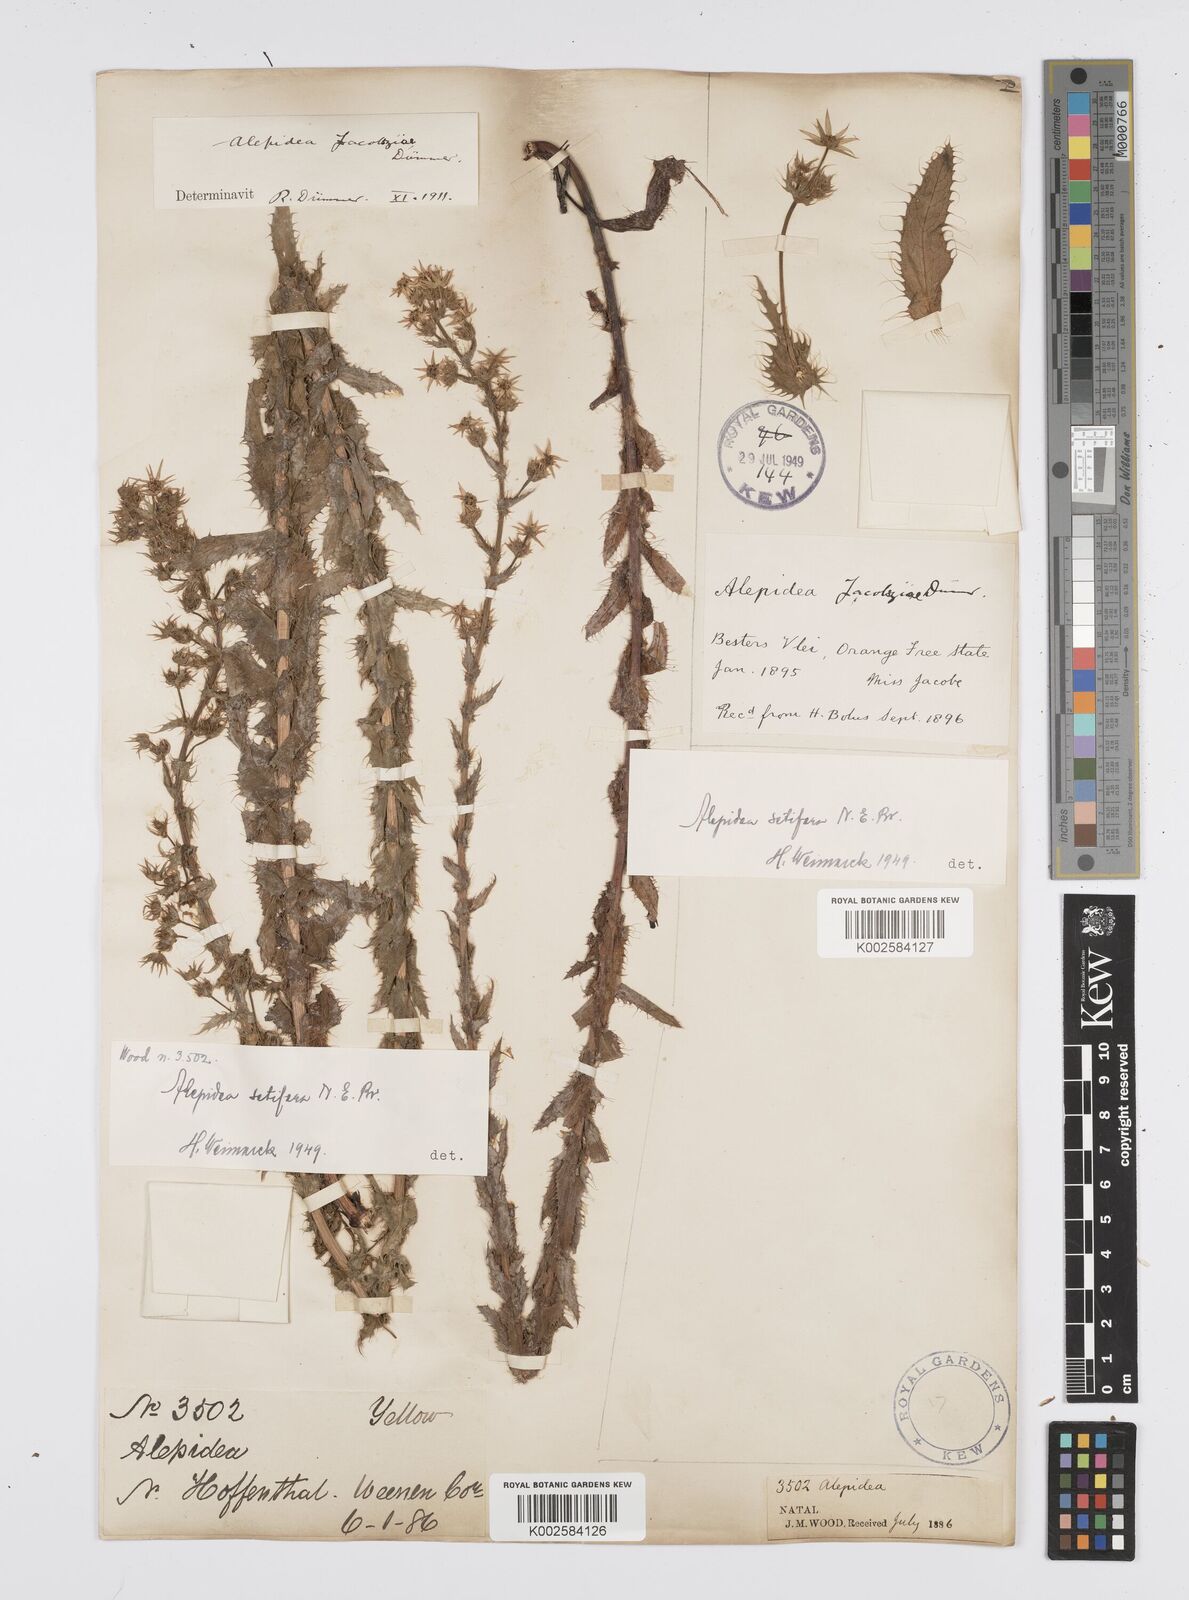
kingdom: Plantae
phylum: Tracheophyta
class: Magnoliopsida
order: Apiales
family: Apiaceae
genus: Alepidea
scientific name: Alepidea setifera
